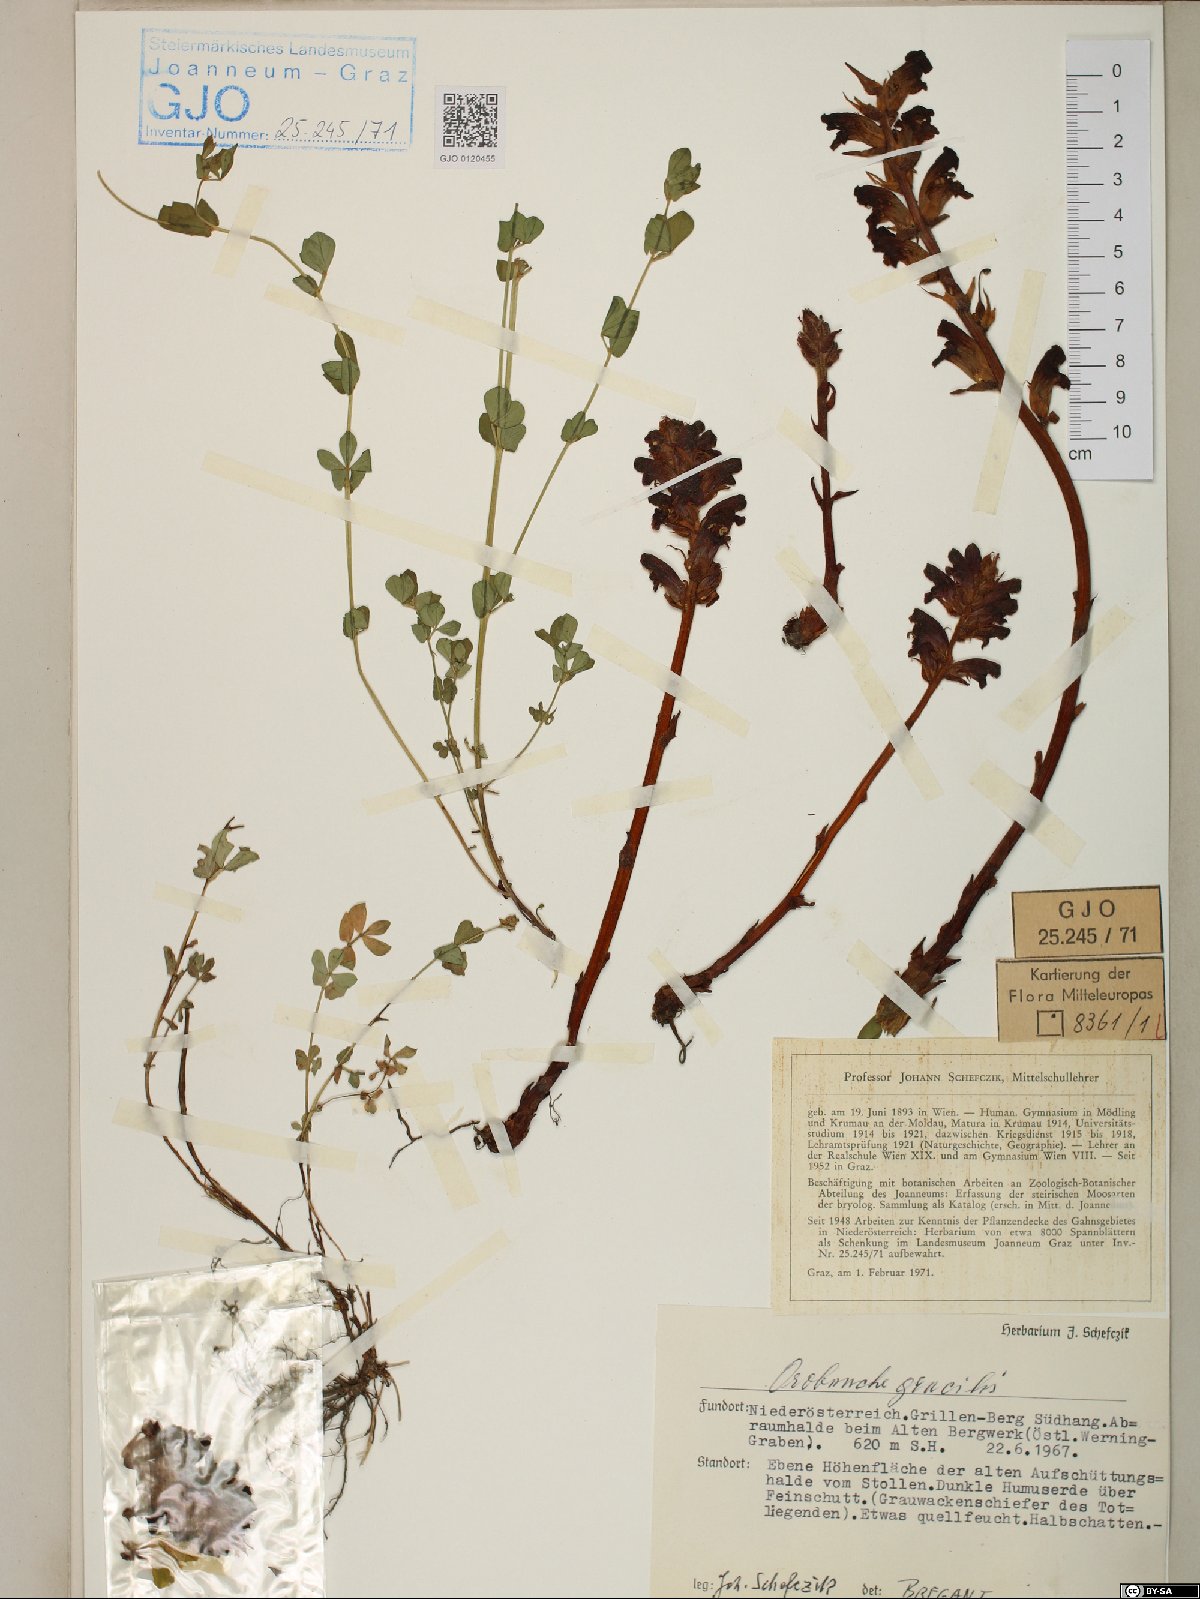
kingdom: Plantae
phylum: Tracheophyta
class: Magnoliopsida
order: Lamiales
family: Orobanchaceae
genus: Orobanche
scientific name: Orobanche gracilis
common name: Slender broomrape
